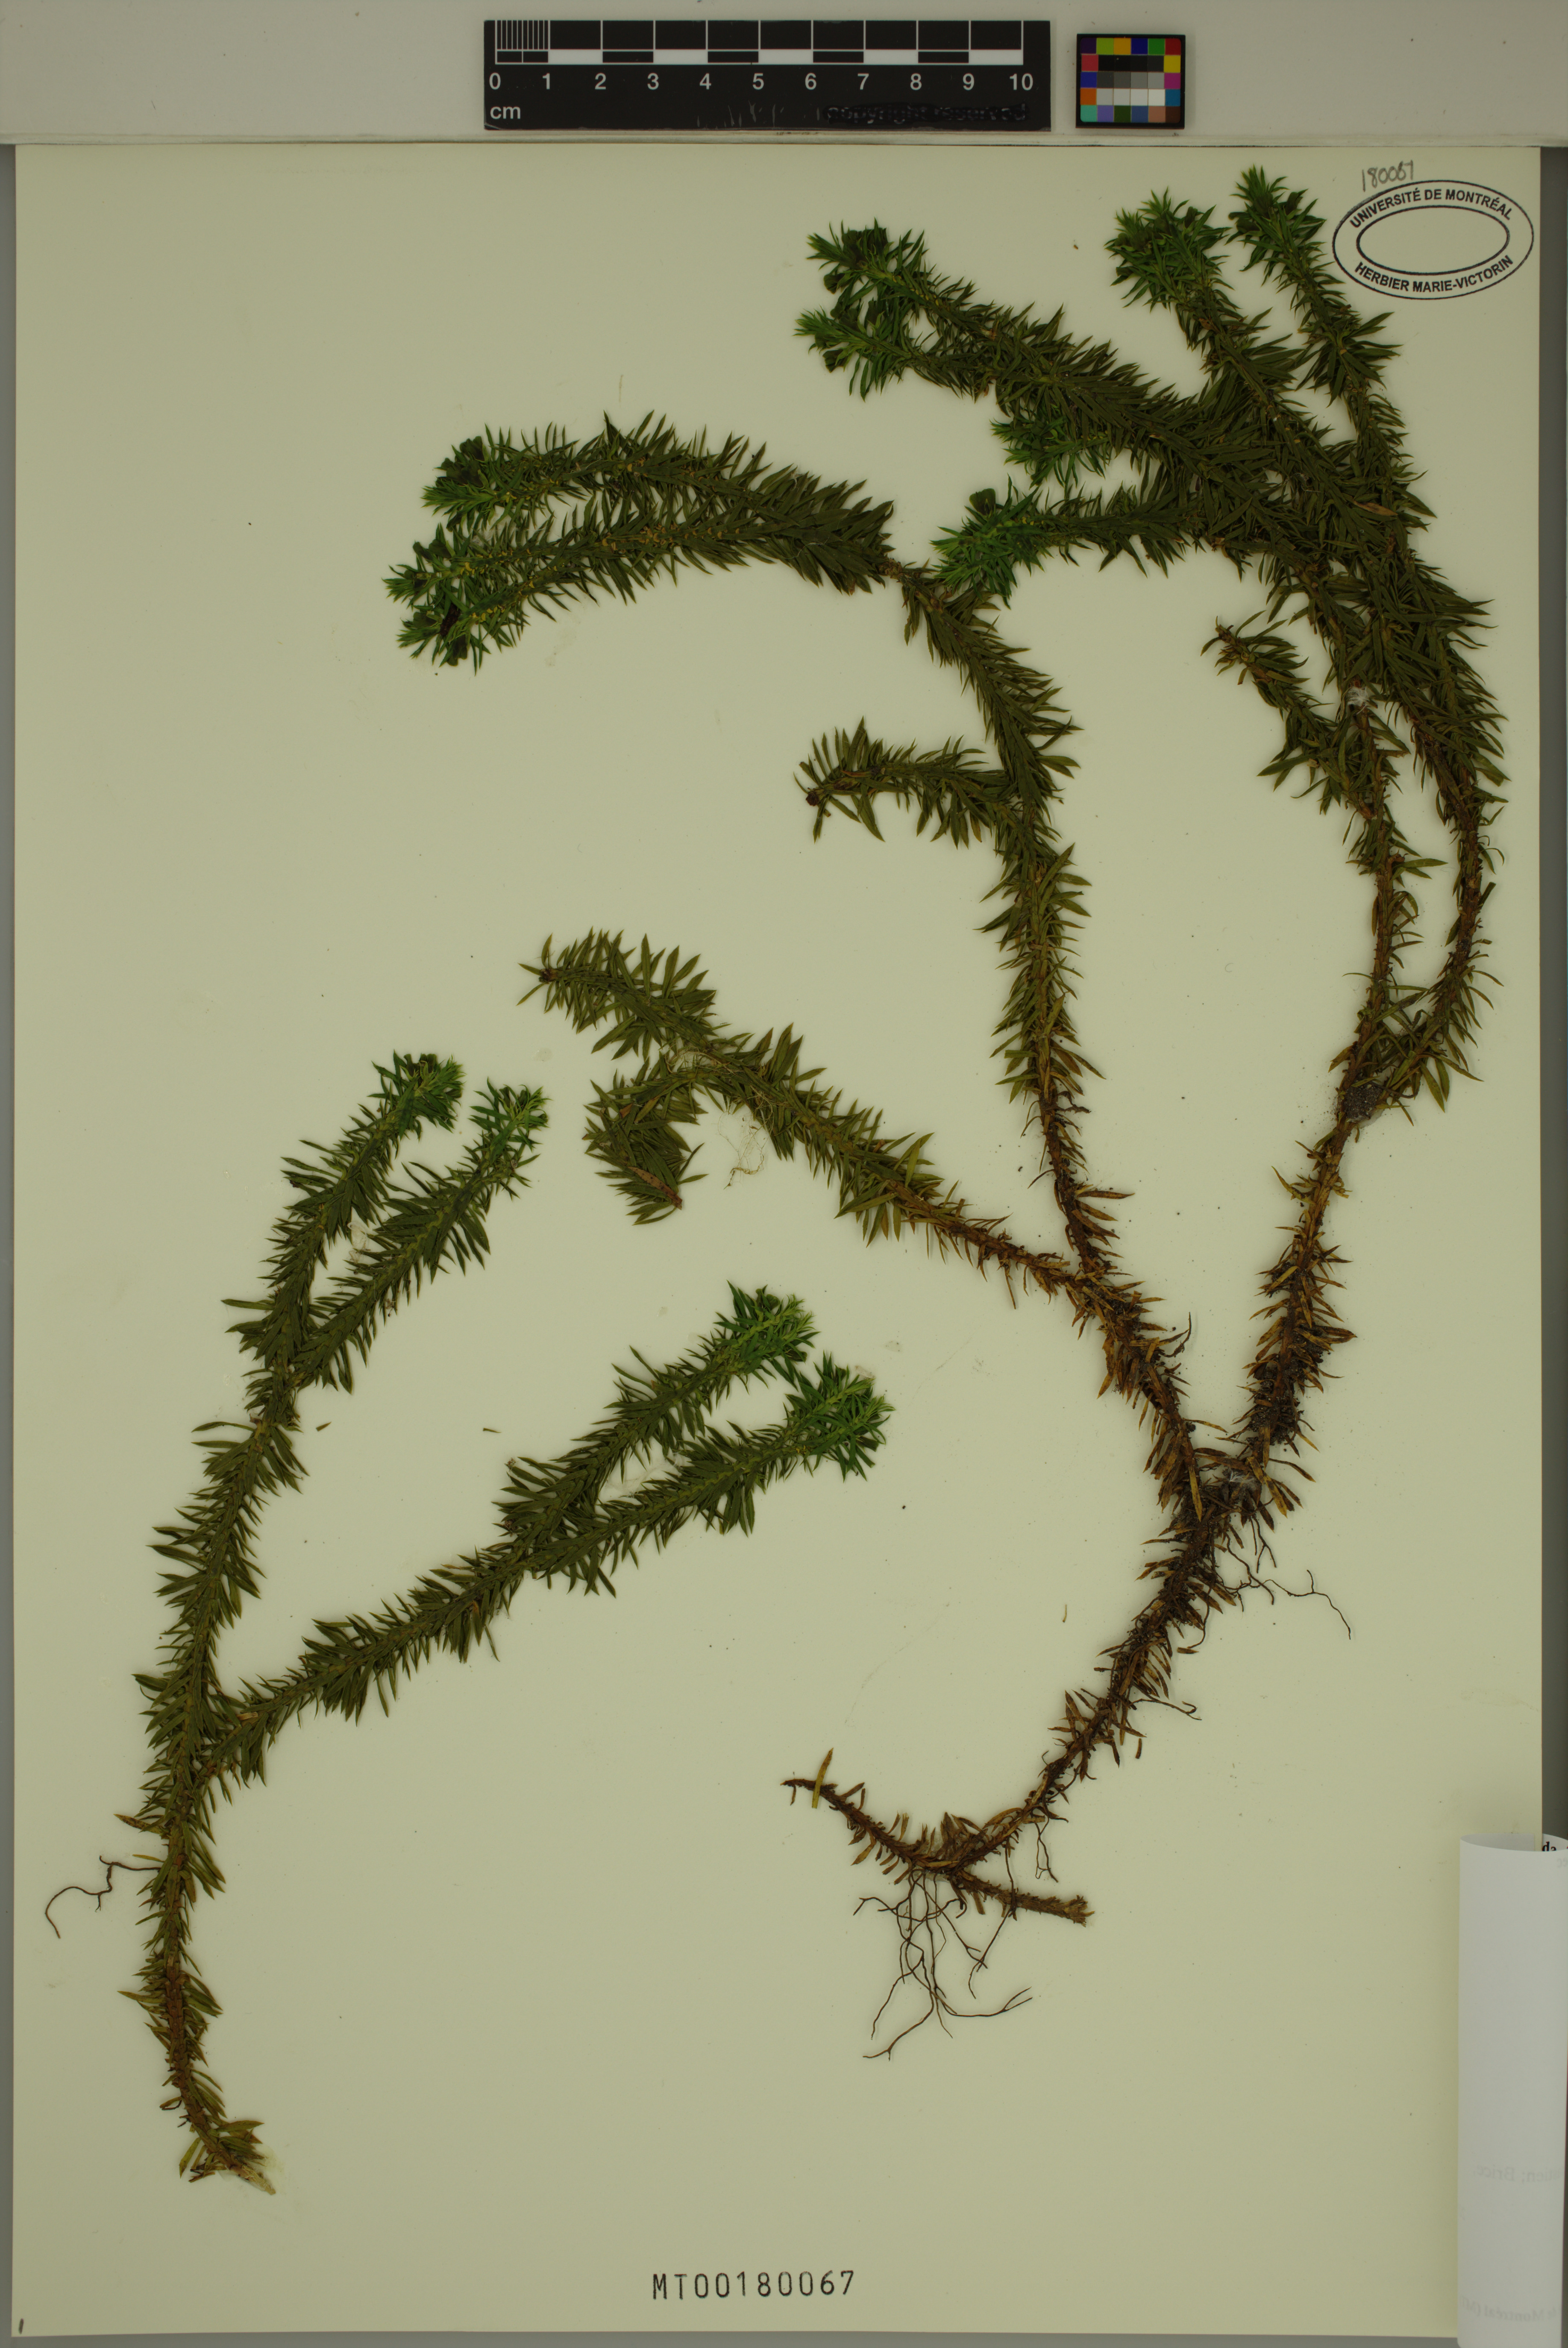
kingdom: Plantae
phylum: Tracheophyta
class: Lycopodiopsida
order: Lycopodiales
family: Lycopodiaceae
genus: Huperzia
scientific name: Huperzia lucidula
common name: Shining clubmoss
